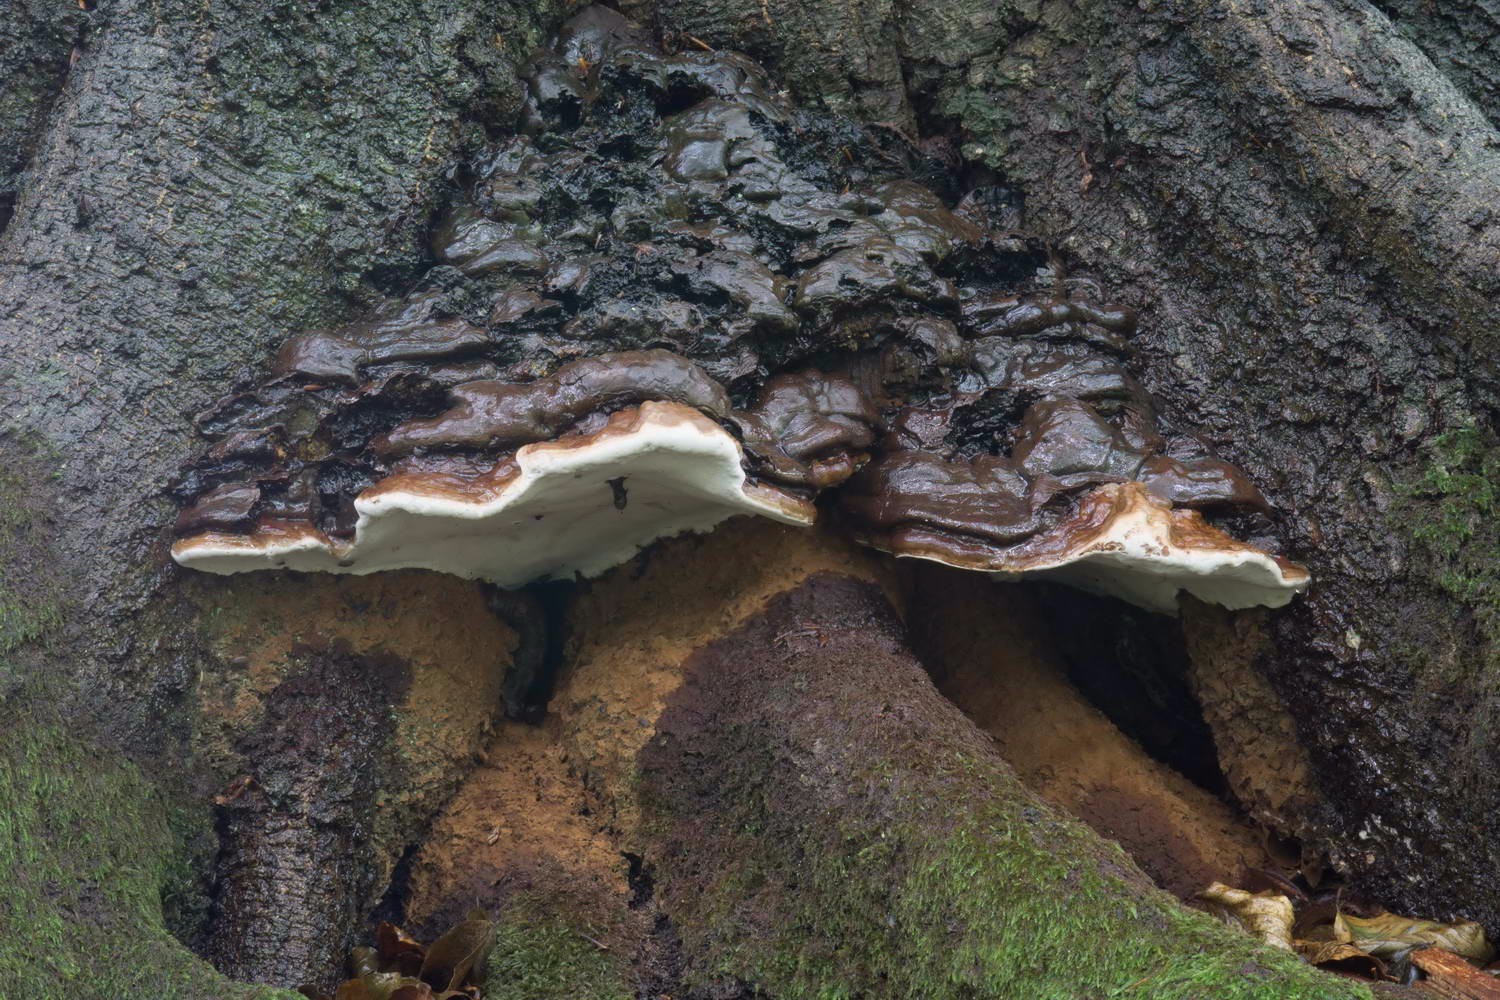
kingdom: Fungi
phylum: Basidiomycota
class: Agaricomycetes
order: Polyporales
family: Polyporaceae
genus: Ganoderma
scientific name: Ganoderma pfeifferi
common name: kobberrød lakporesvamp
